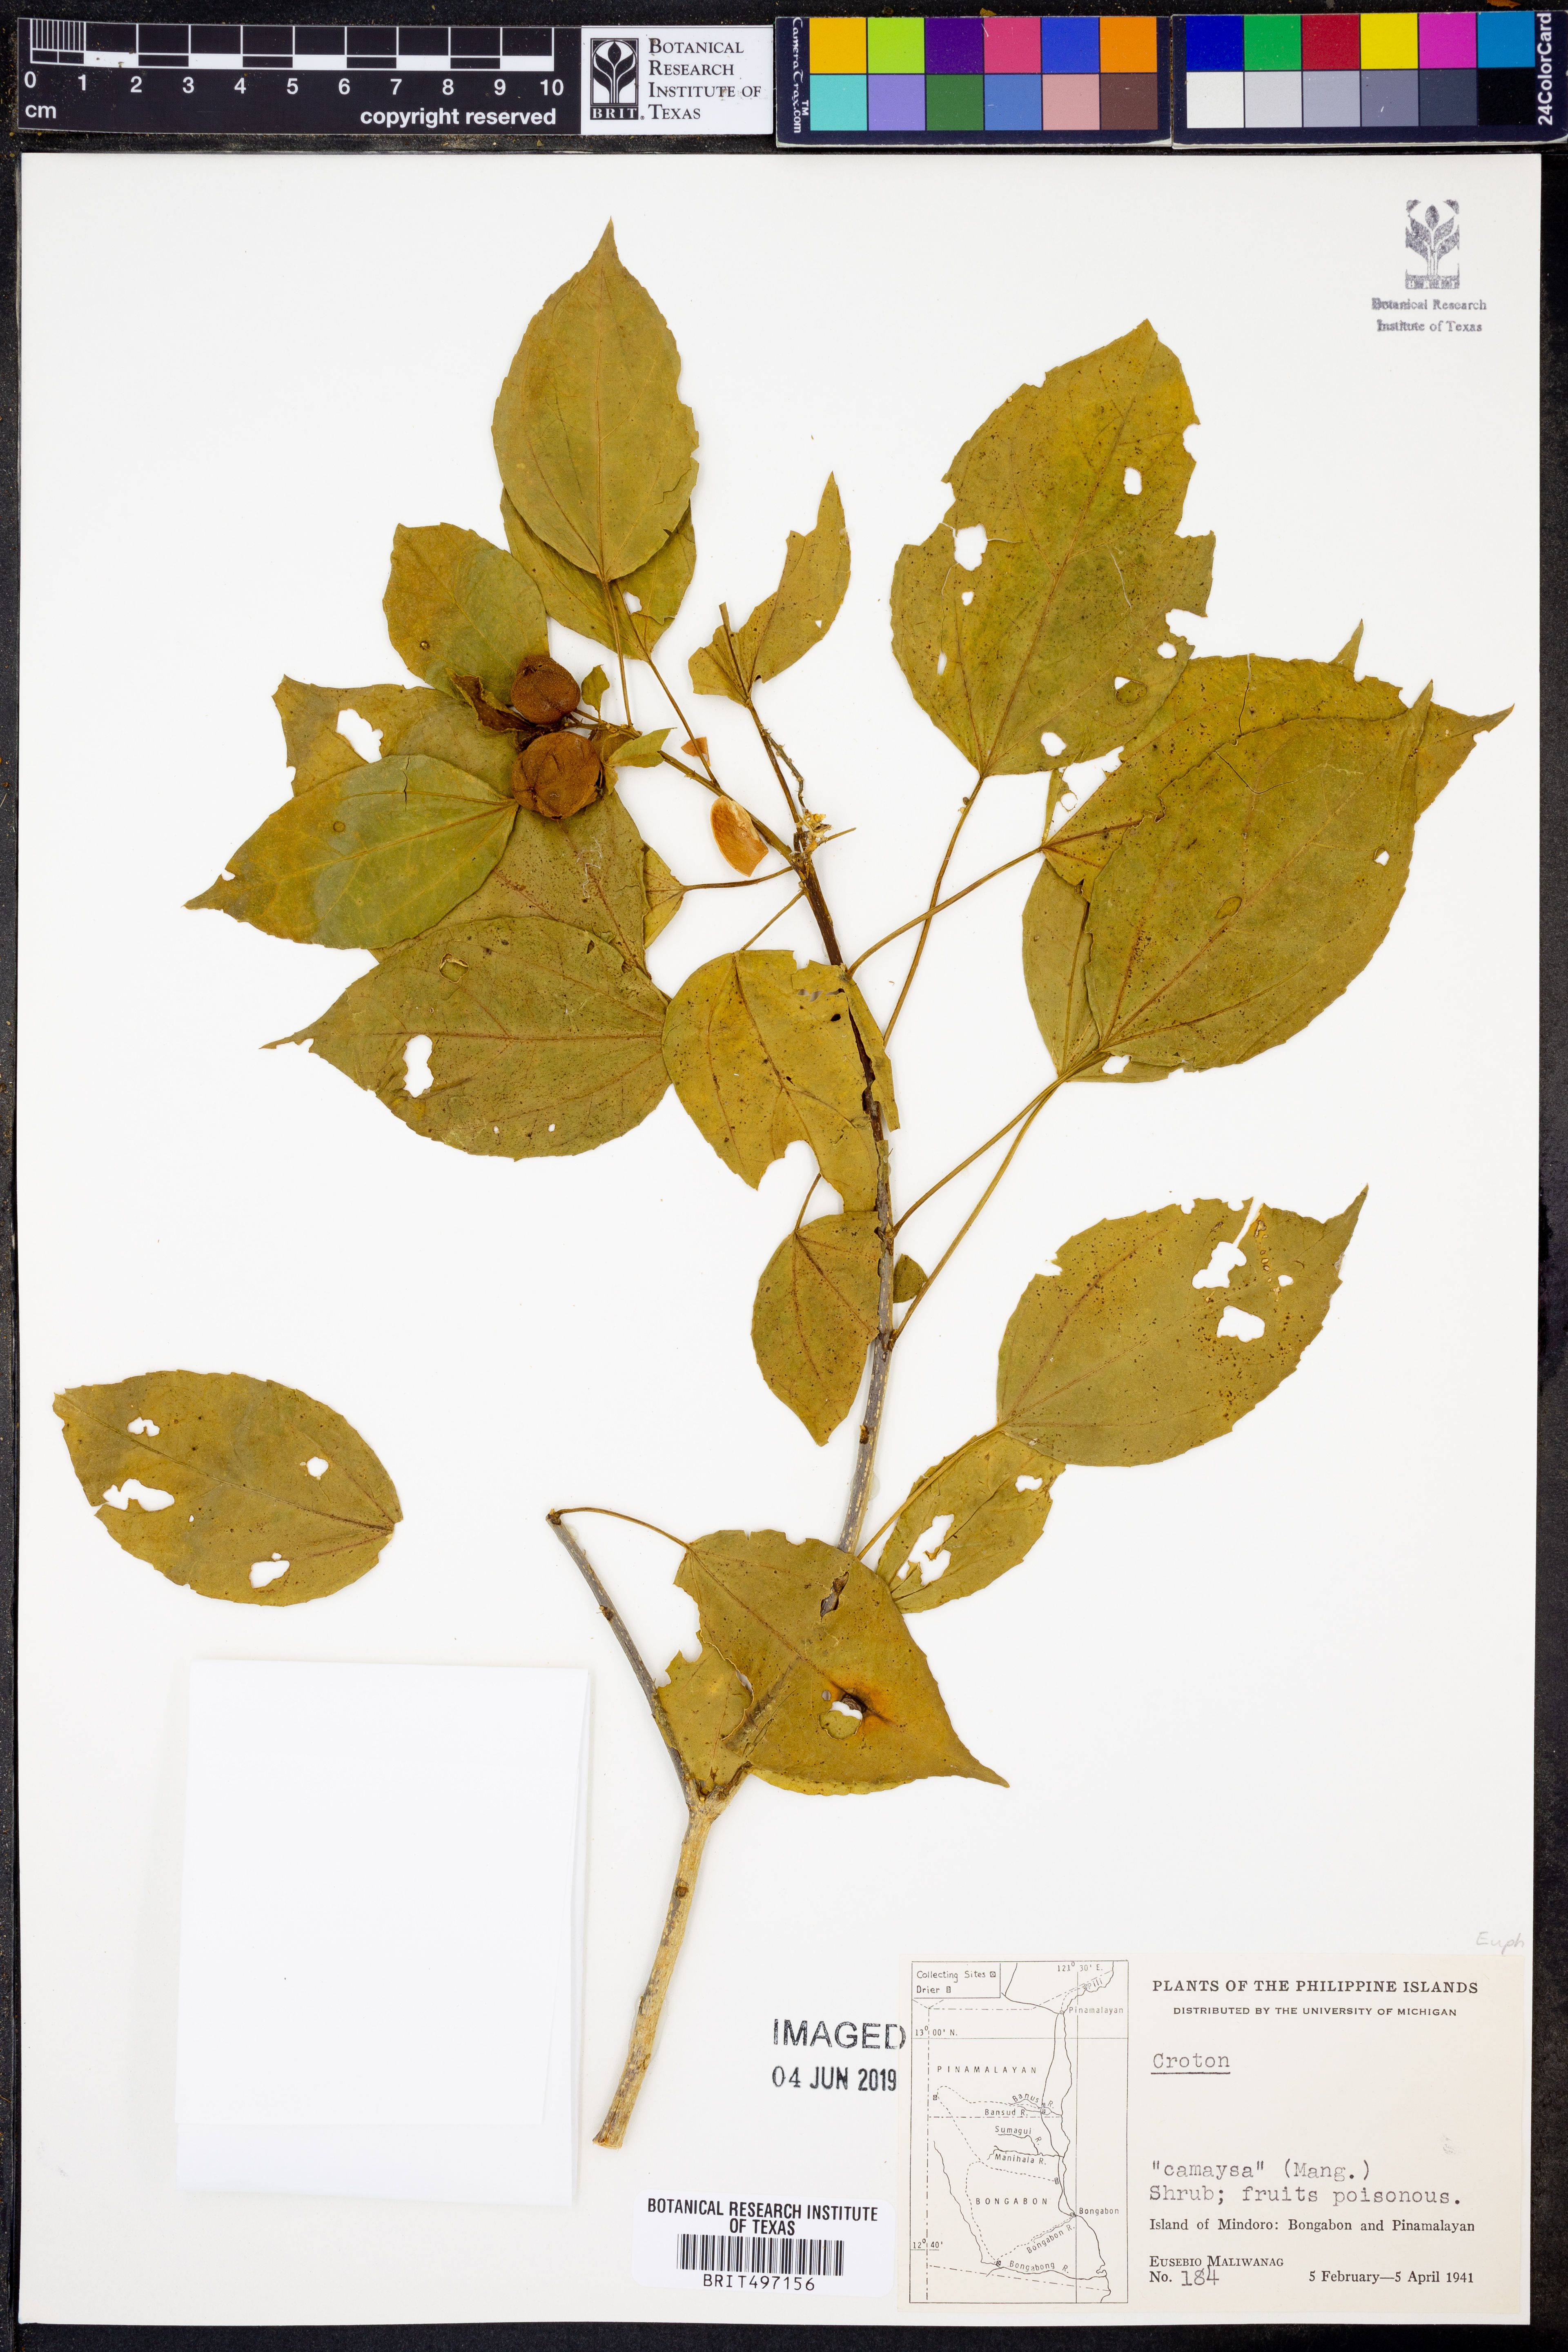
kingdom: Plantae
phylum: Tracheophyta
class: Magnoliopsida
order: Malpighiales
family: Euphorbiaceae
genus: Croton
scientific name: Croton
